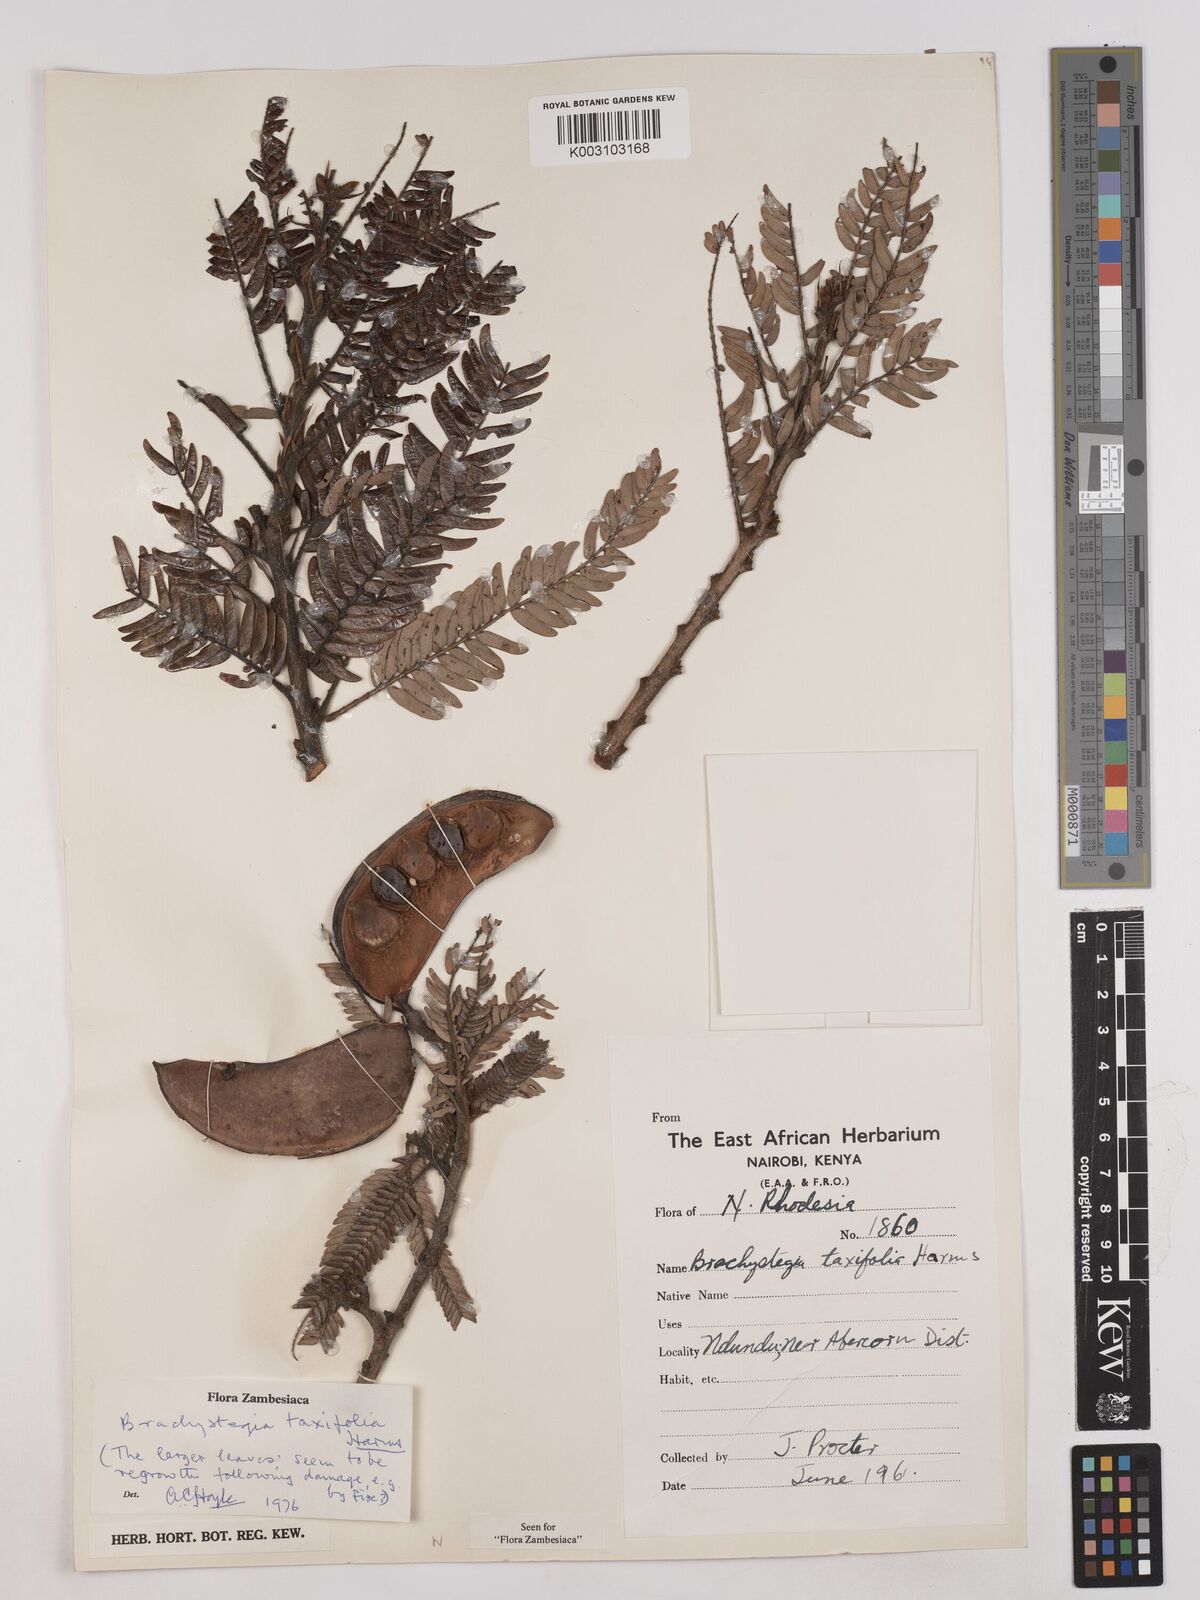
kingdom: Plantae
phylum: Tracheophyta
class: Magnoliopsida
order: Fabales
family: Fabaceae
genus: Brachystegia
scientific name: Brachystegia taxifolia
